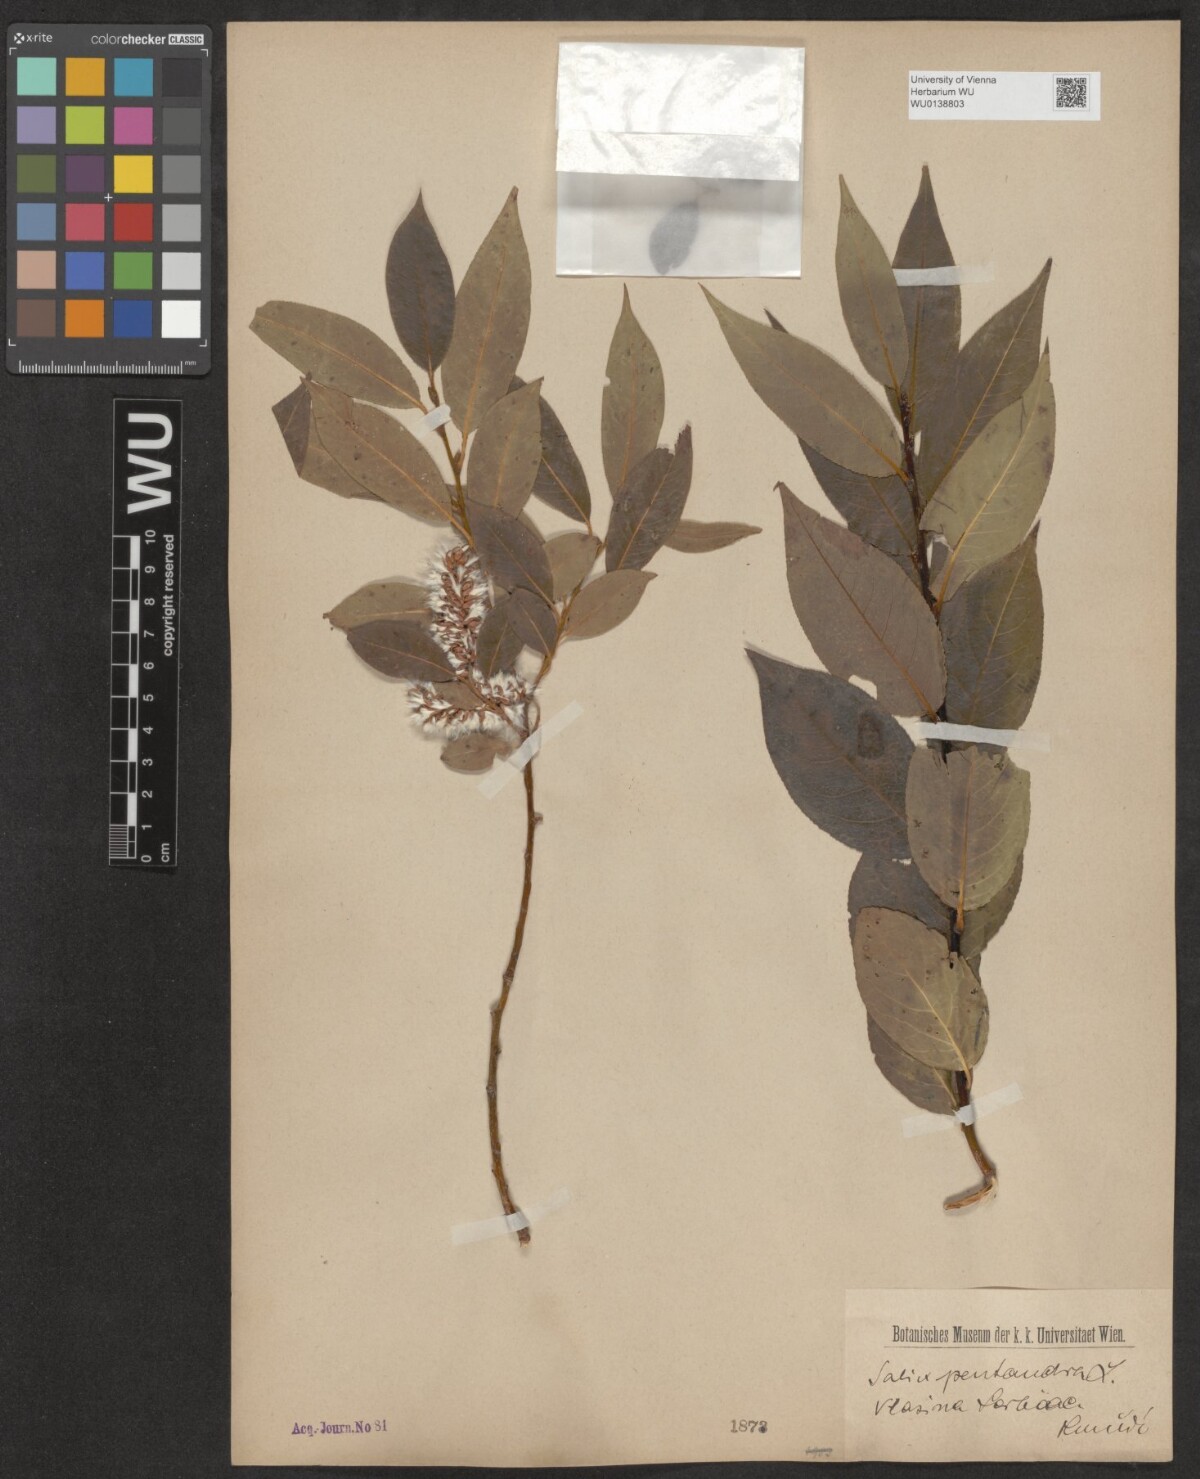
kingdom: Plantae
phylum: Tracheophyta
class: Magnoliopsida
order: Malpighiales
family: Salicaceae
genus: Salix
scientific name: Salix pentandra
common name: Bay willow
